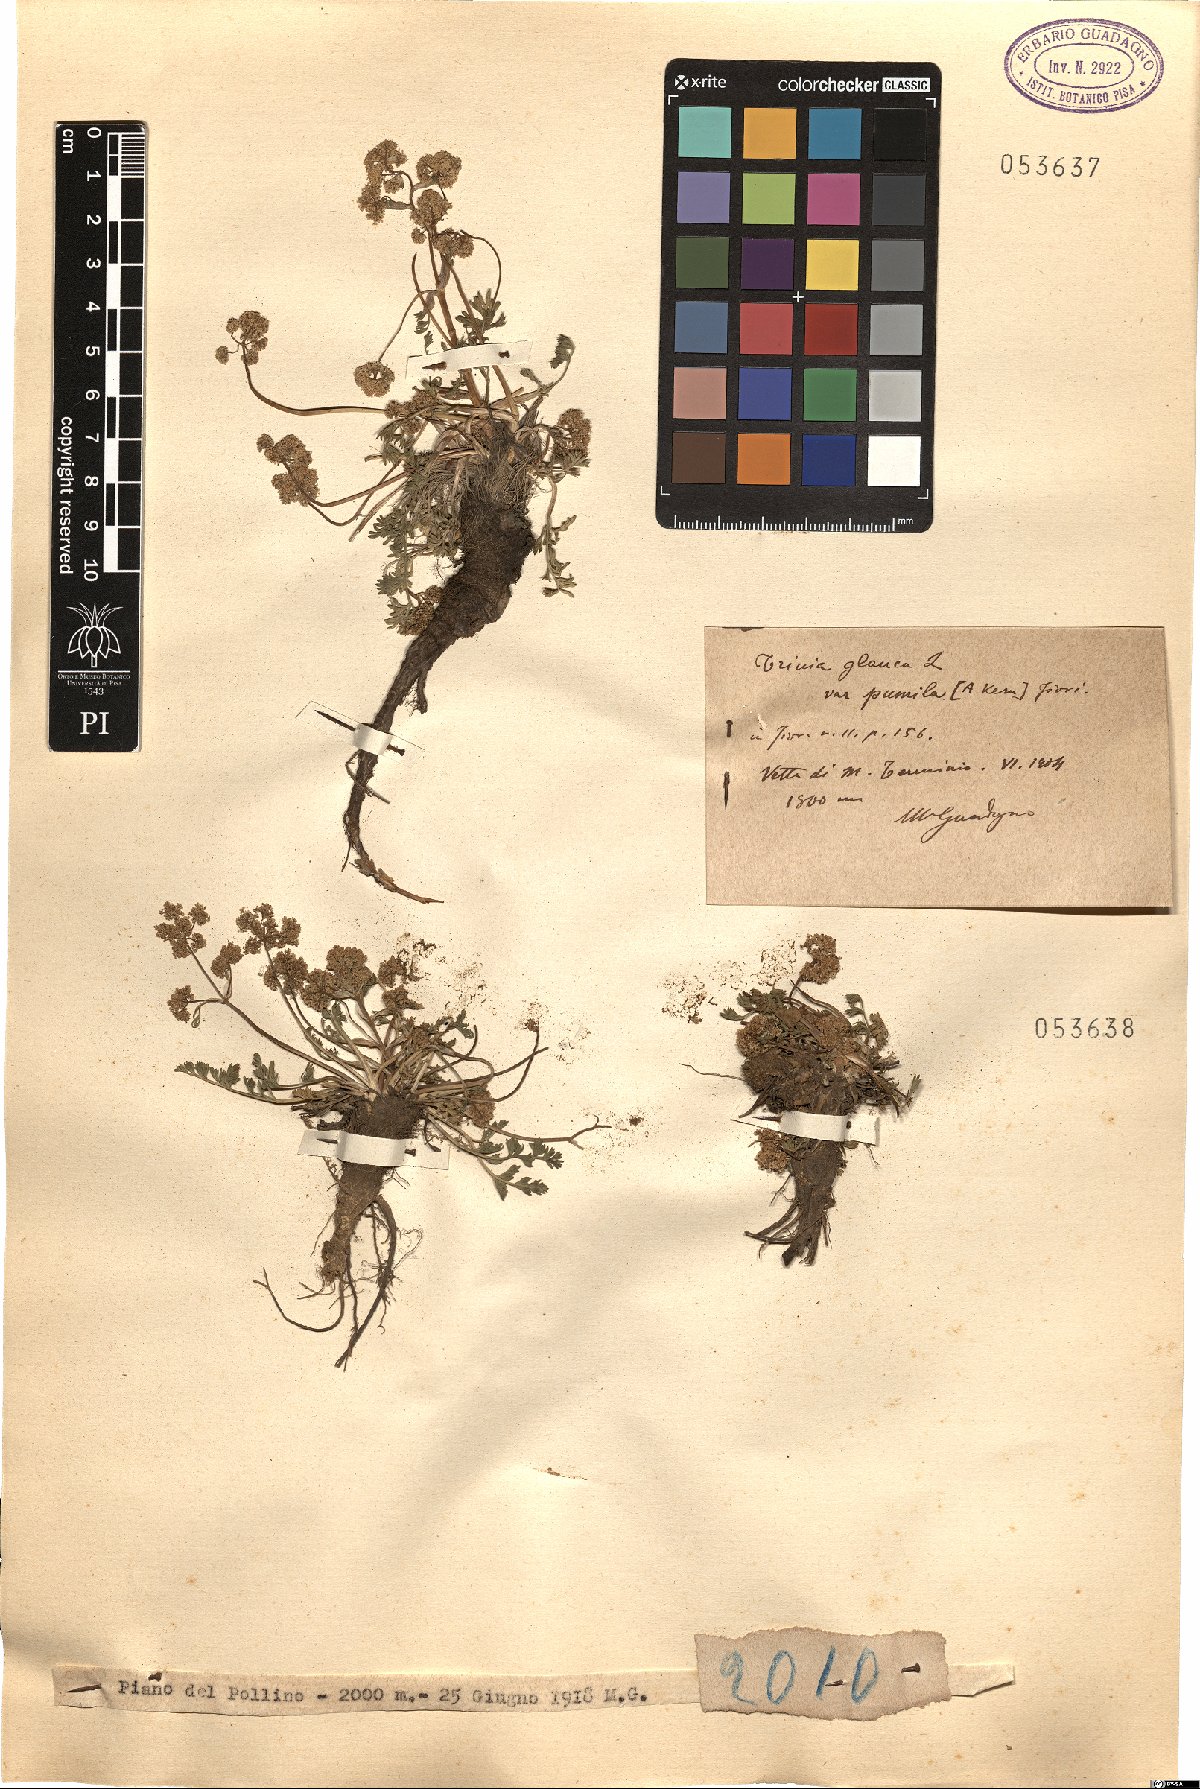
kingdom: Plantae
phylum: Tracheophyta
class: Magnoliopsida
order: Apiales
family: Apiaceae
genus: Trinia
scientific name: Trinia glauca
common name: Honewort
